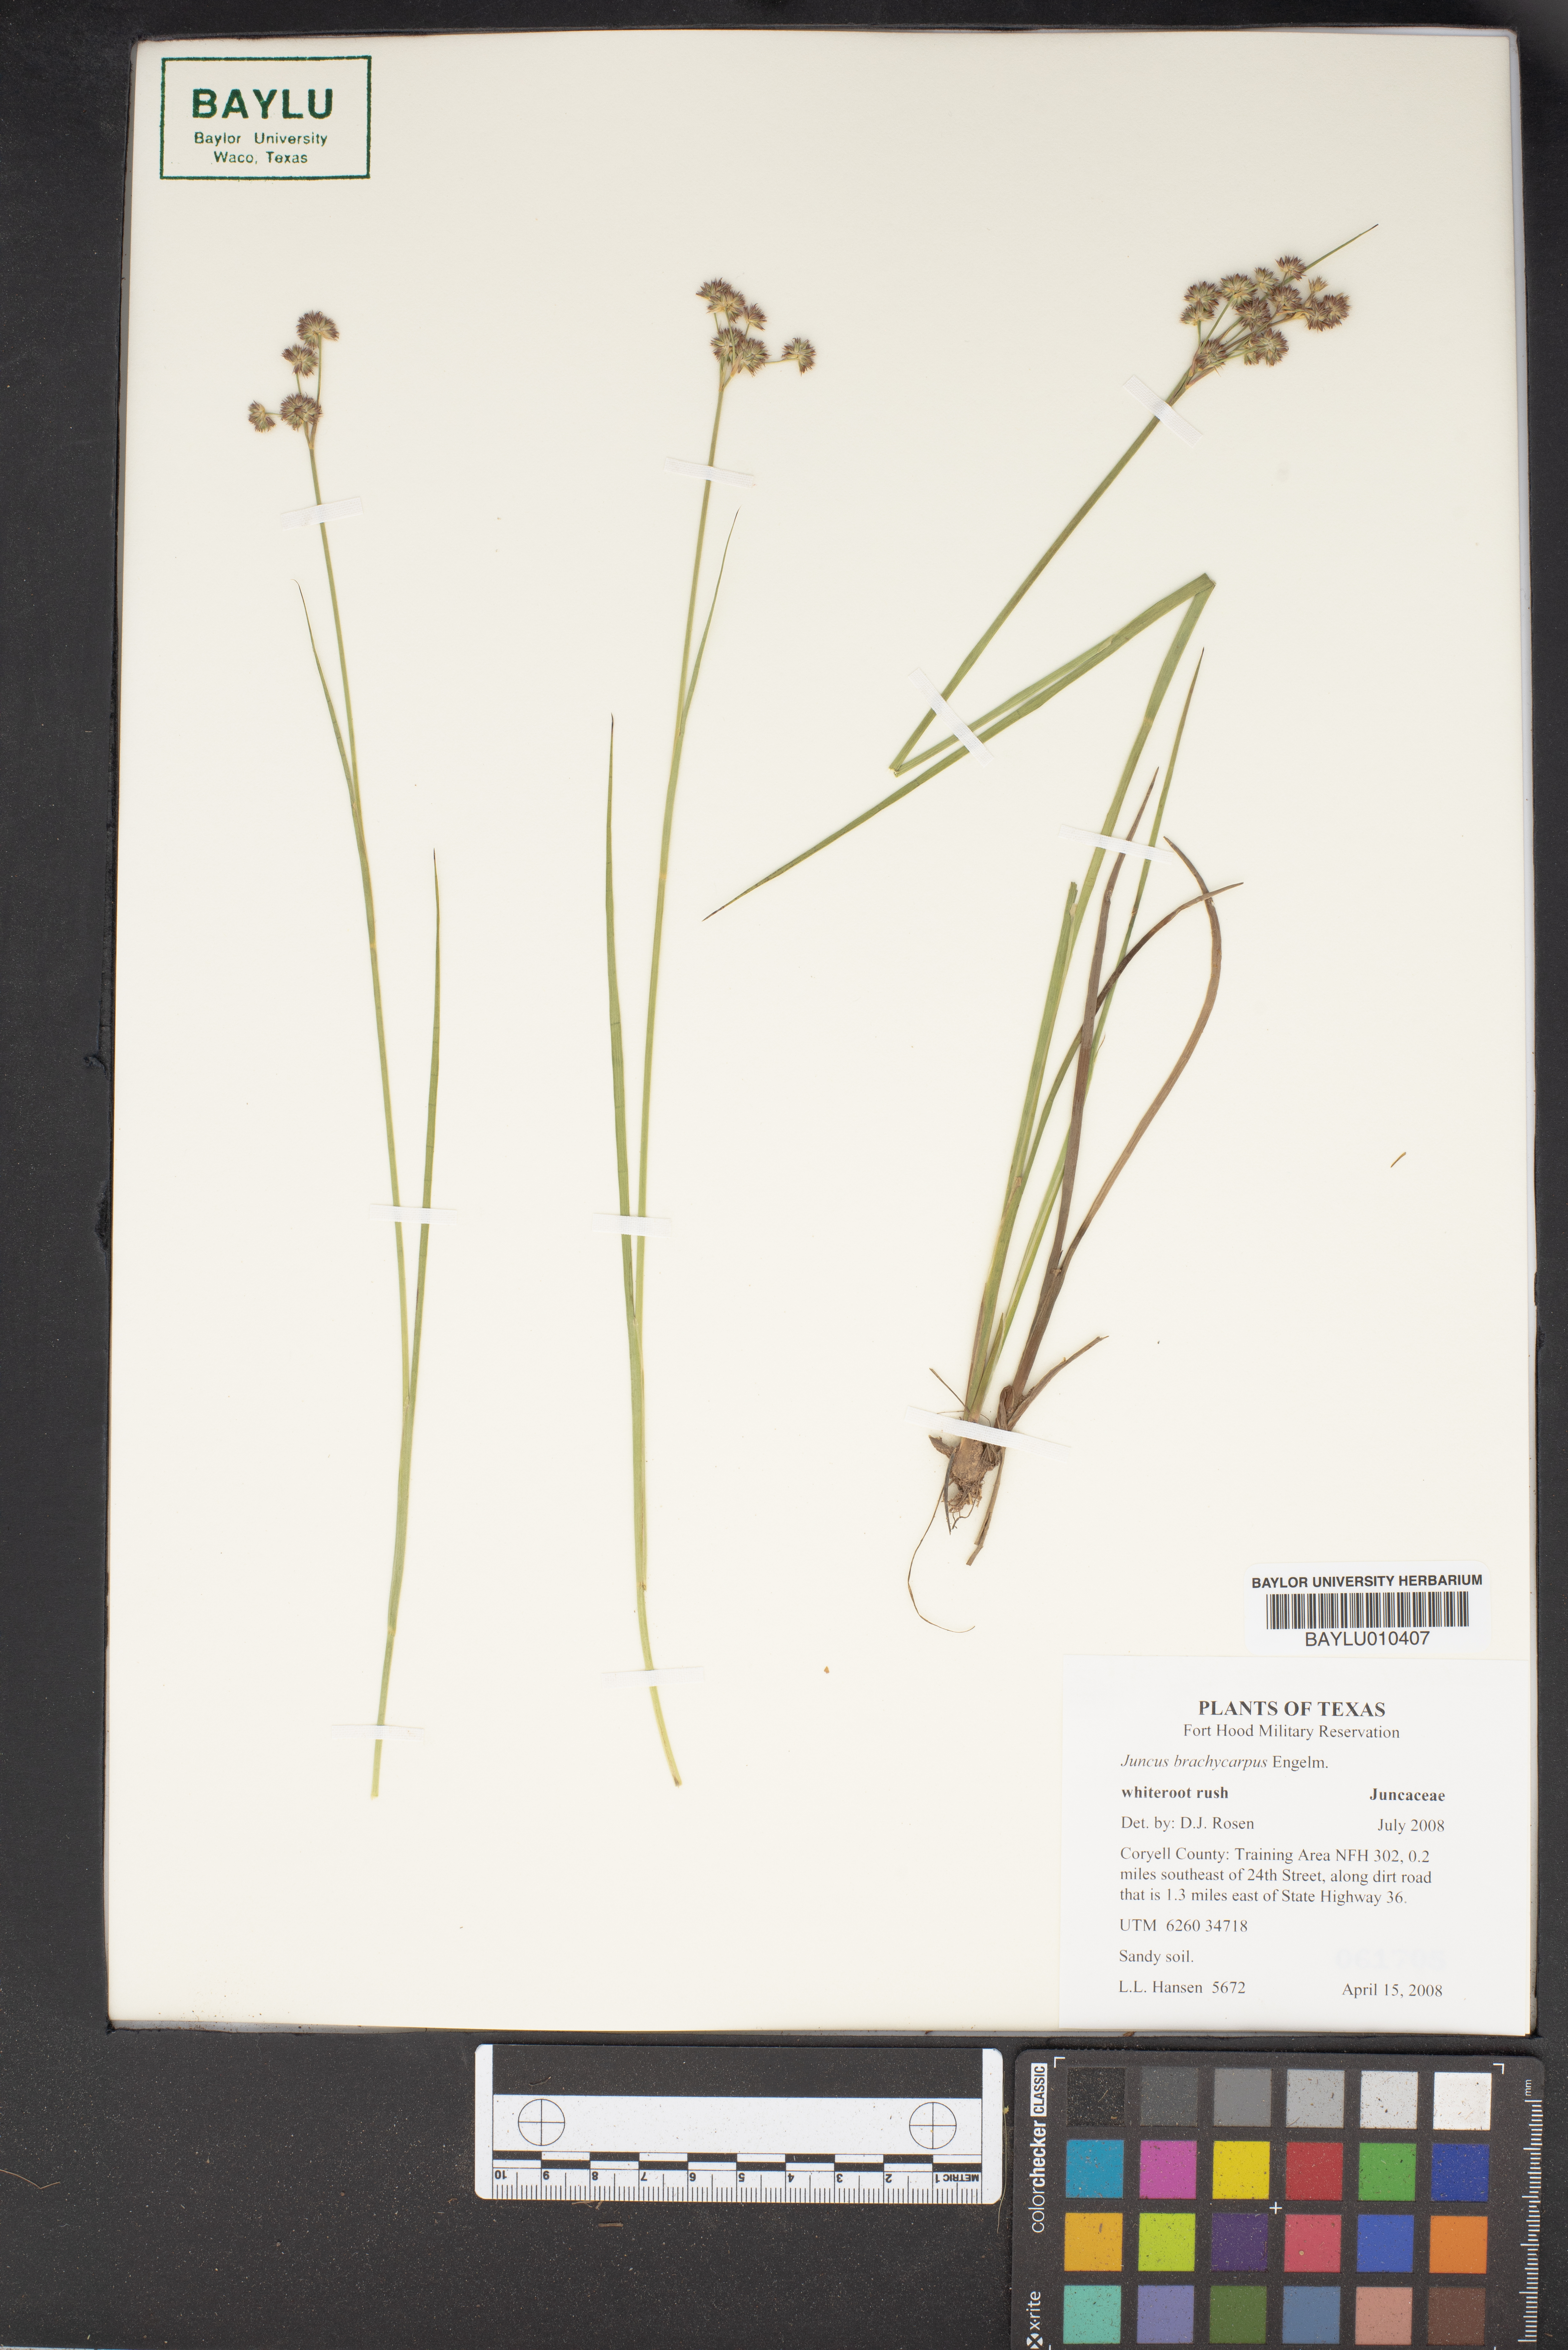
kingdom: Plantae
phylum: Tracheophyta
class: Liliopsida
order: Poales
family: Juncaceae
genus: Juncus
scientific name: Juncus brachycarpus
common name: Shore rush
